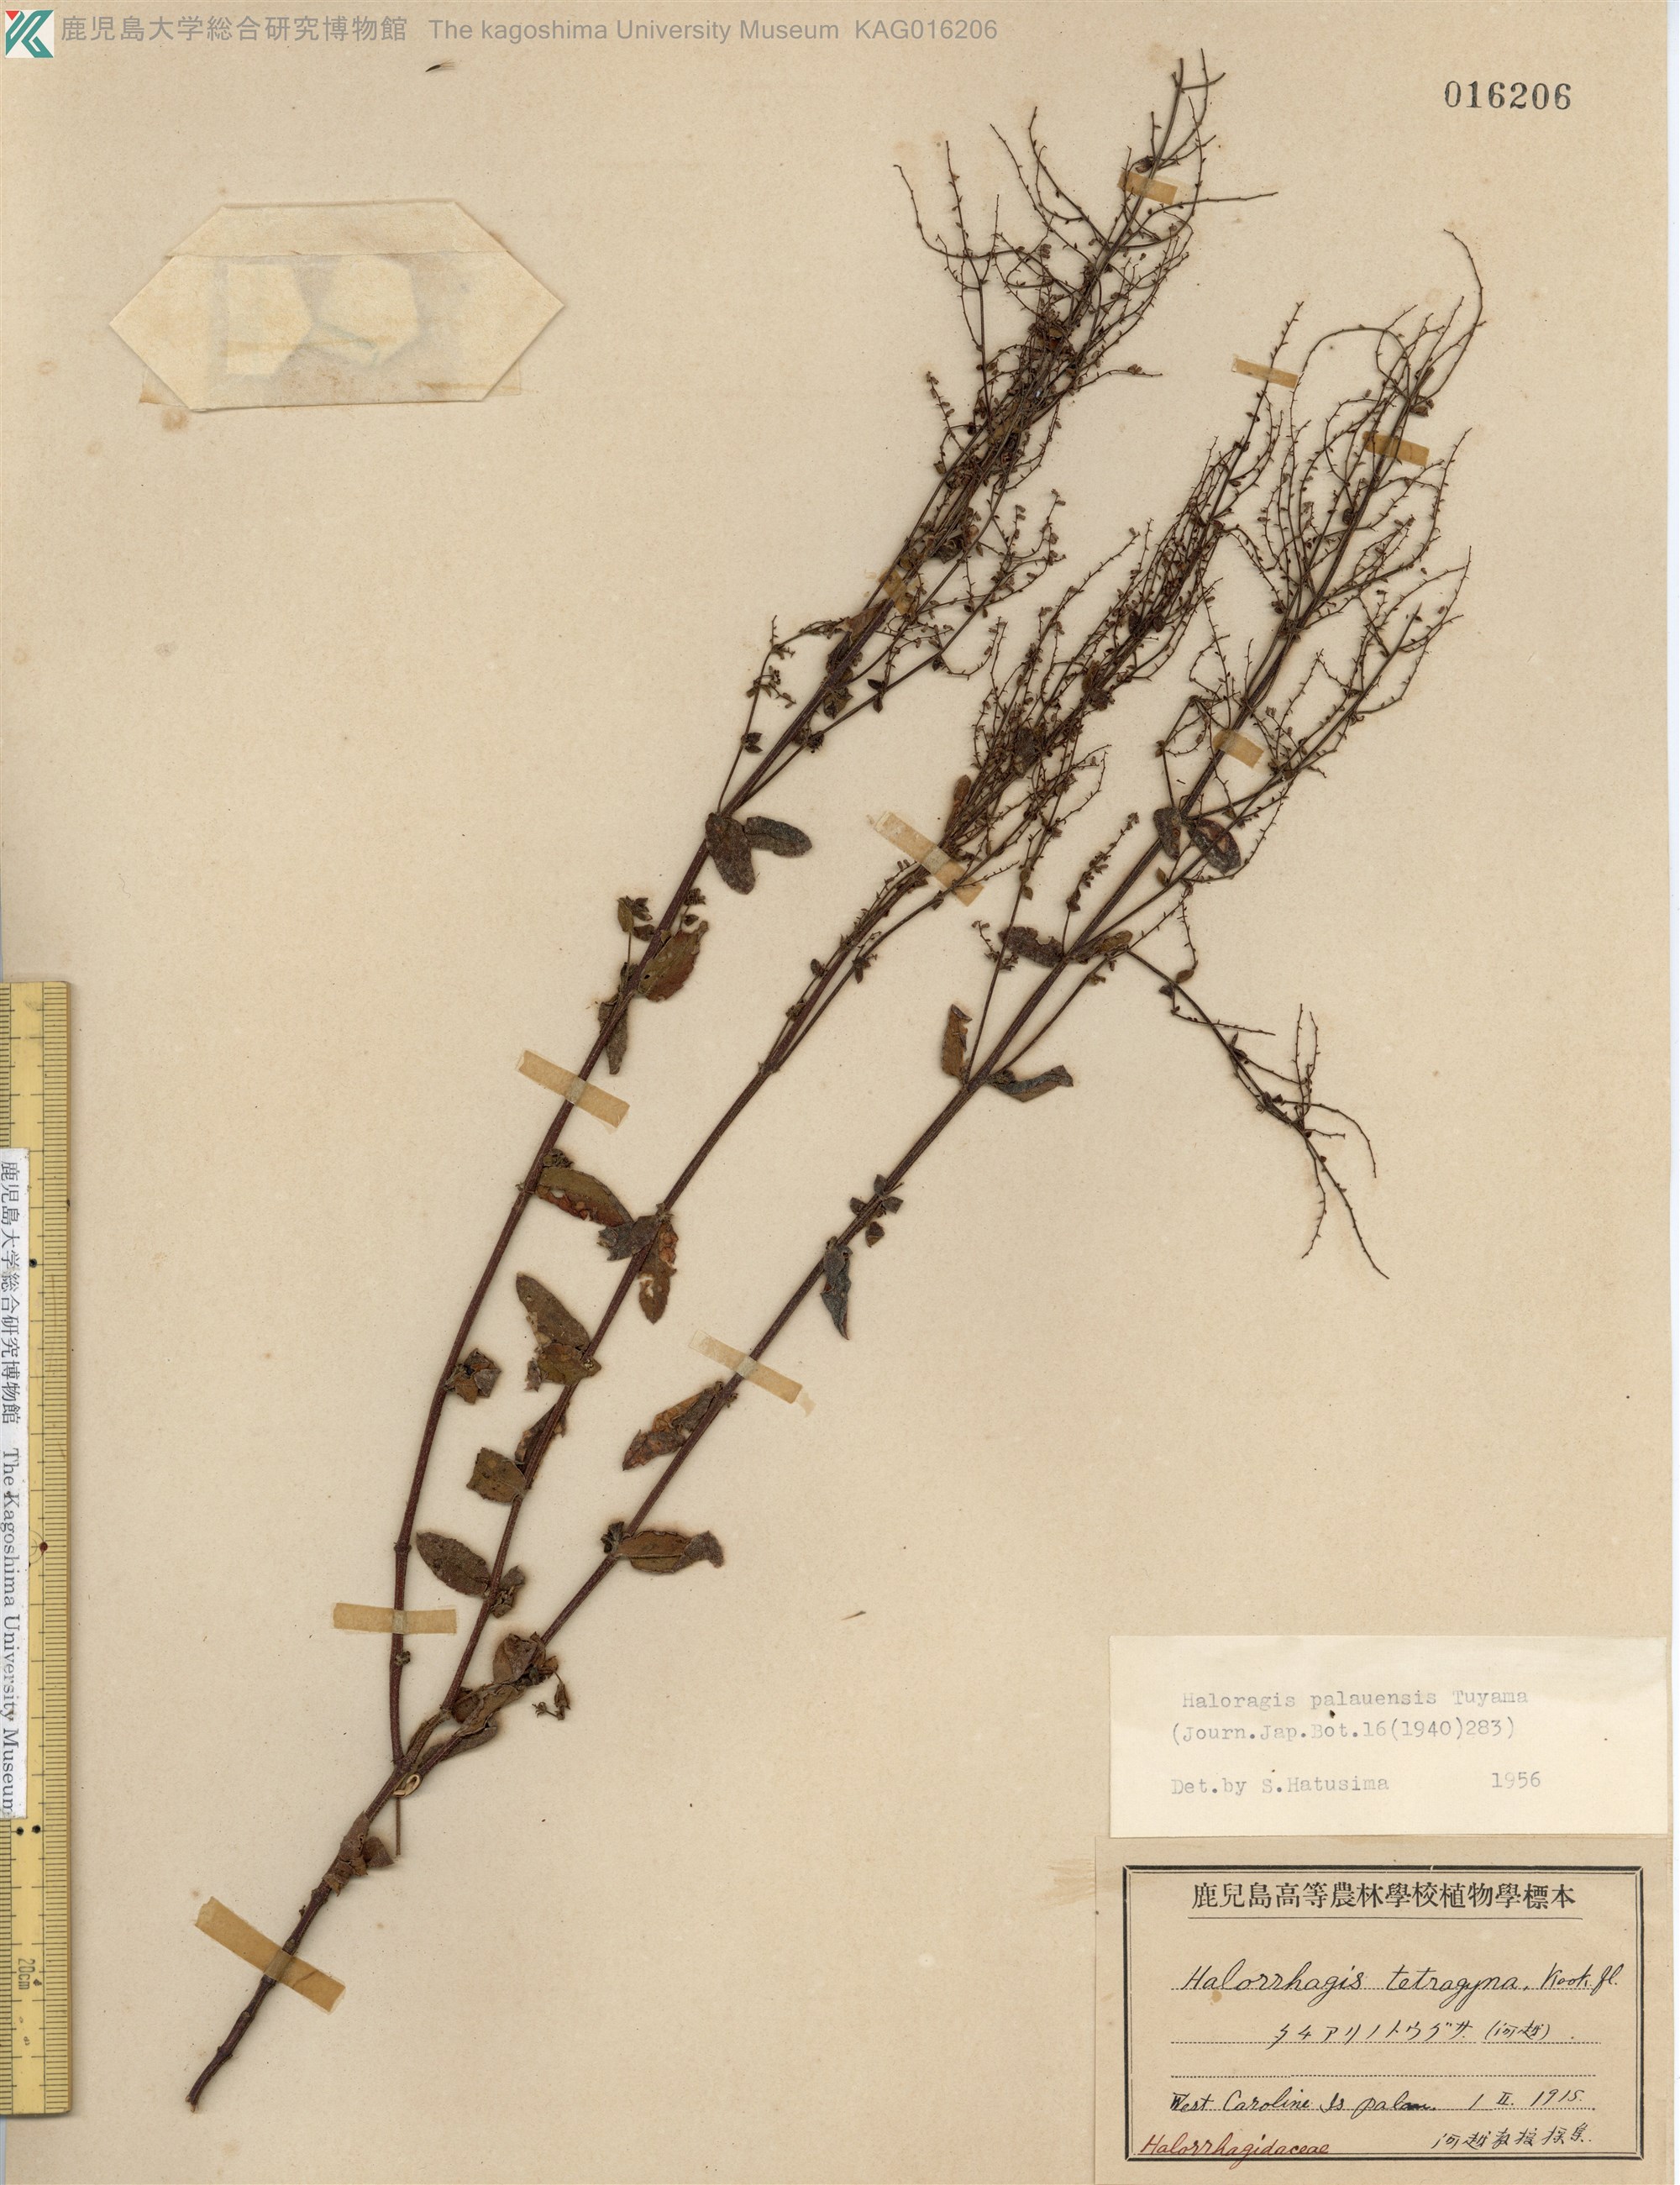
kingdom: Plantae
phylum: Tracheophyta
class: Magnoliopsida
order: Saxifragales
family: Haloragaceae
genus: Gonocarpus
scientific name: Gonocarpus acanthocarpus
